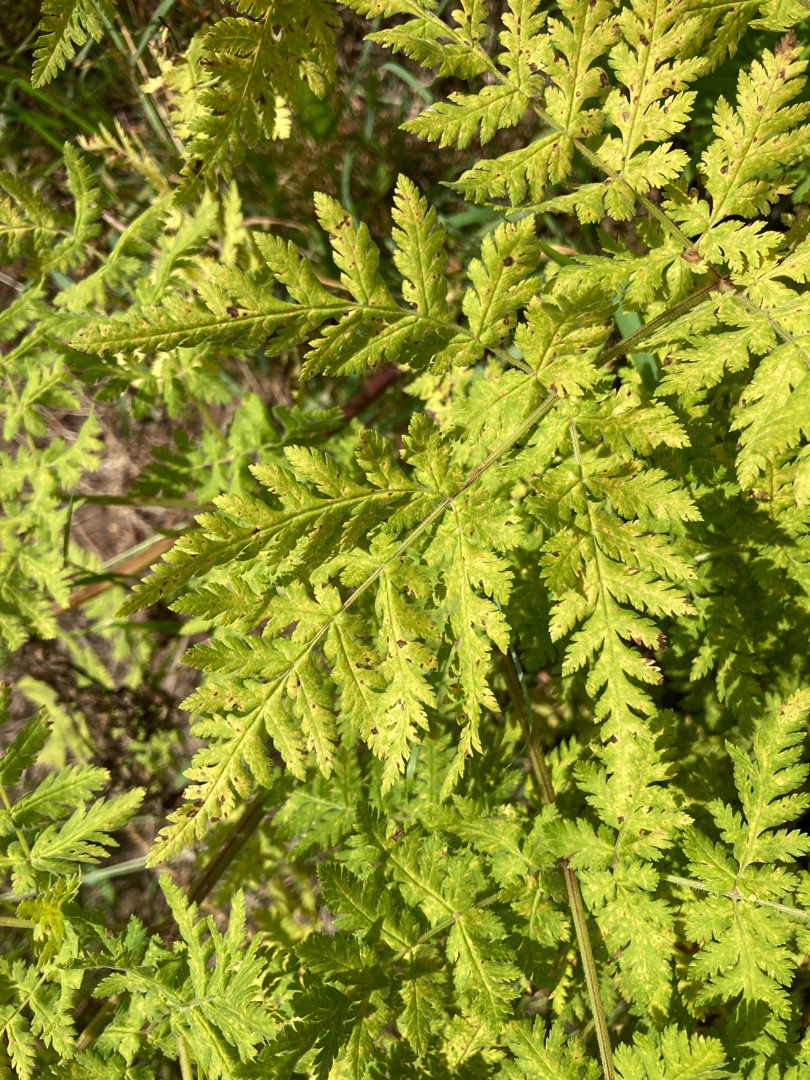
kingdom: Plantae
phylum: Tracheophyta
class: Magnoliopsida
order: Apiales
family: Apiaceae
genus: Myrrhis
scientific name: Myrrhis odorata
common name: Sødskærm
